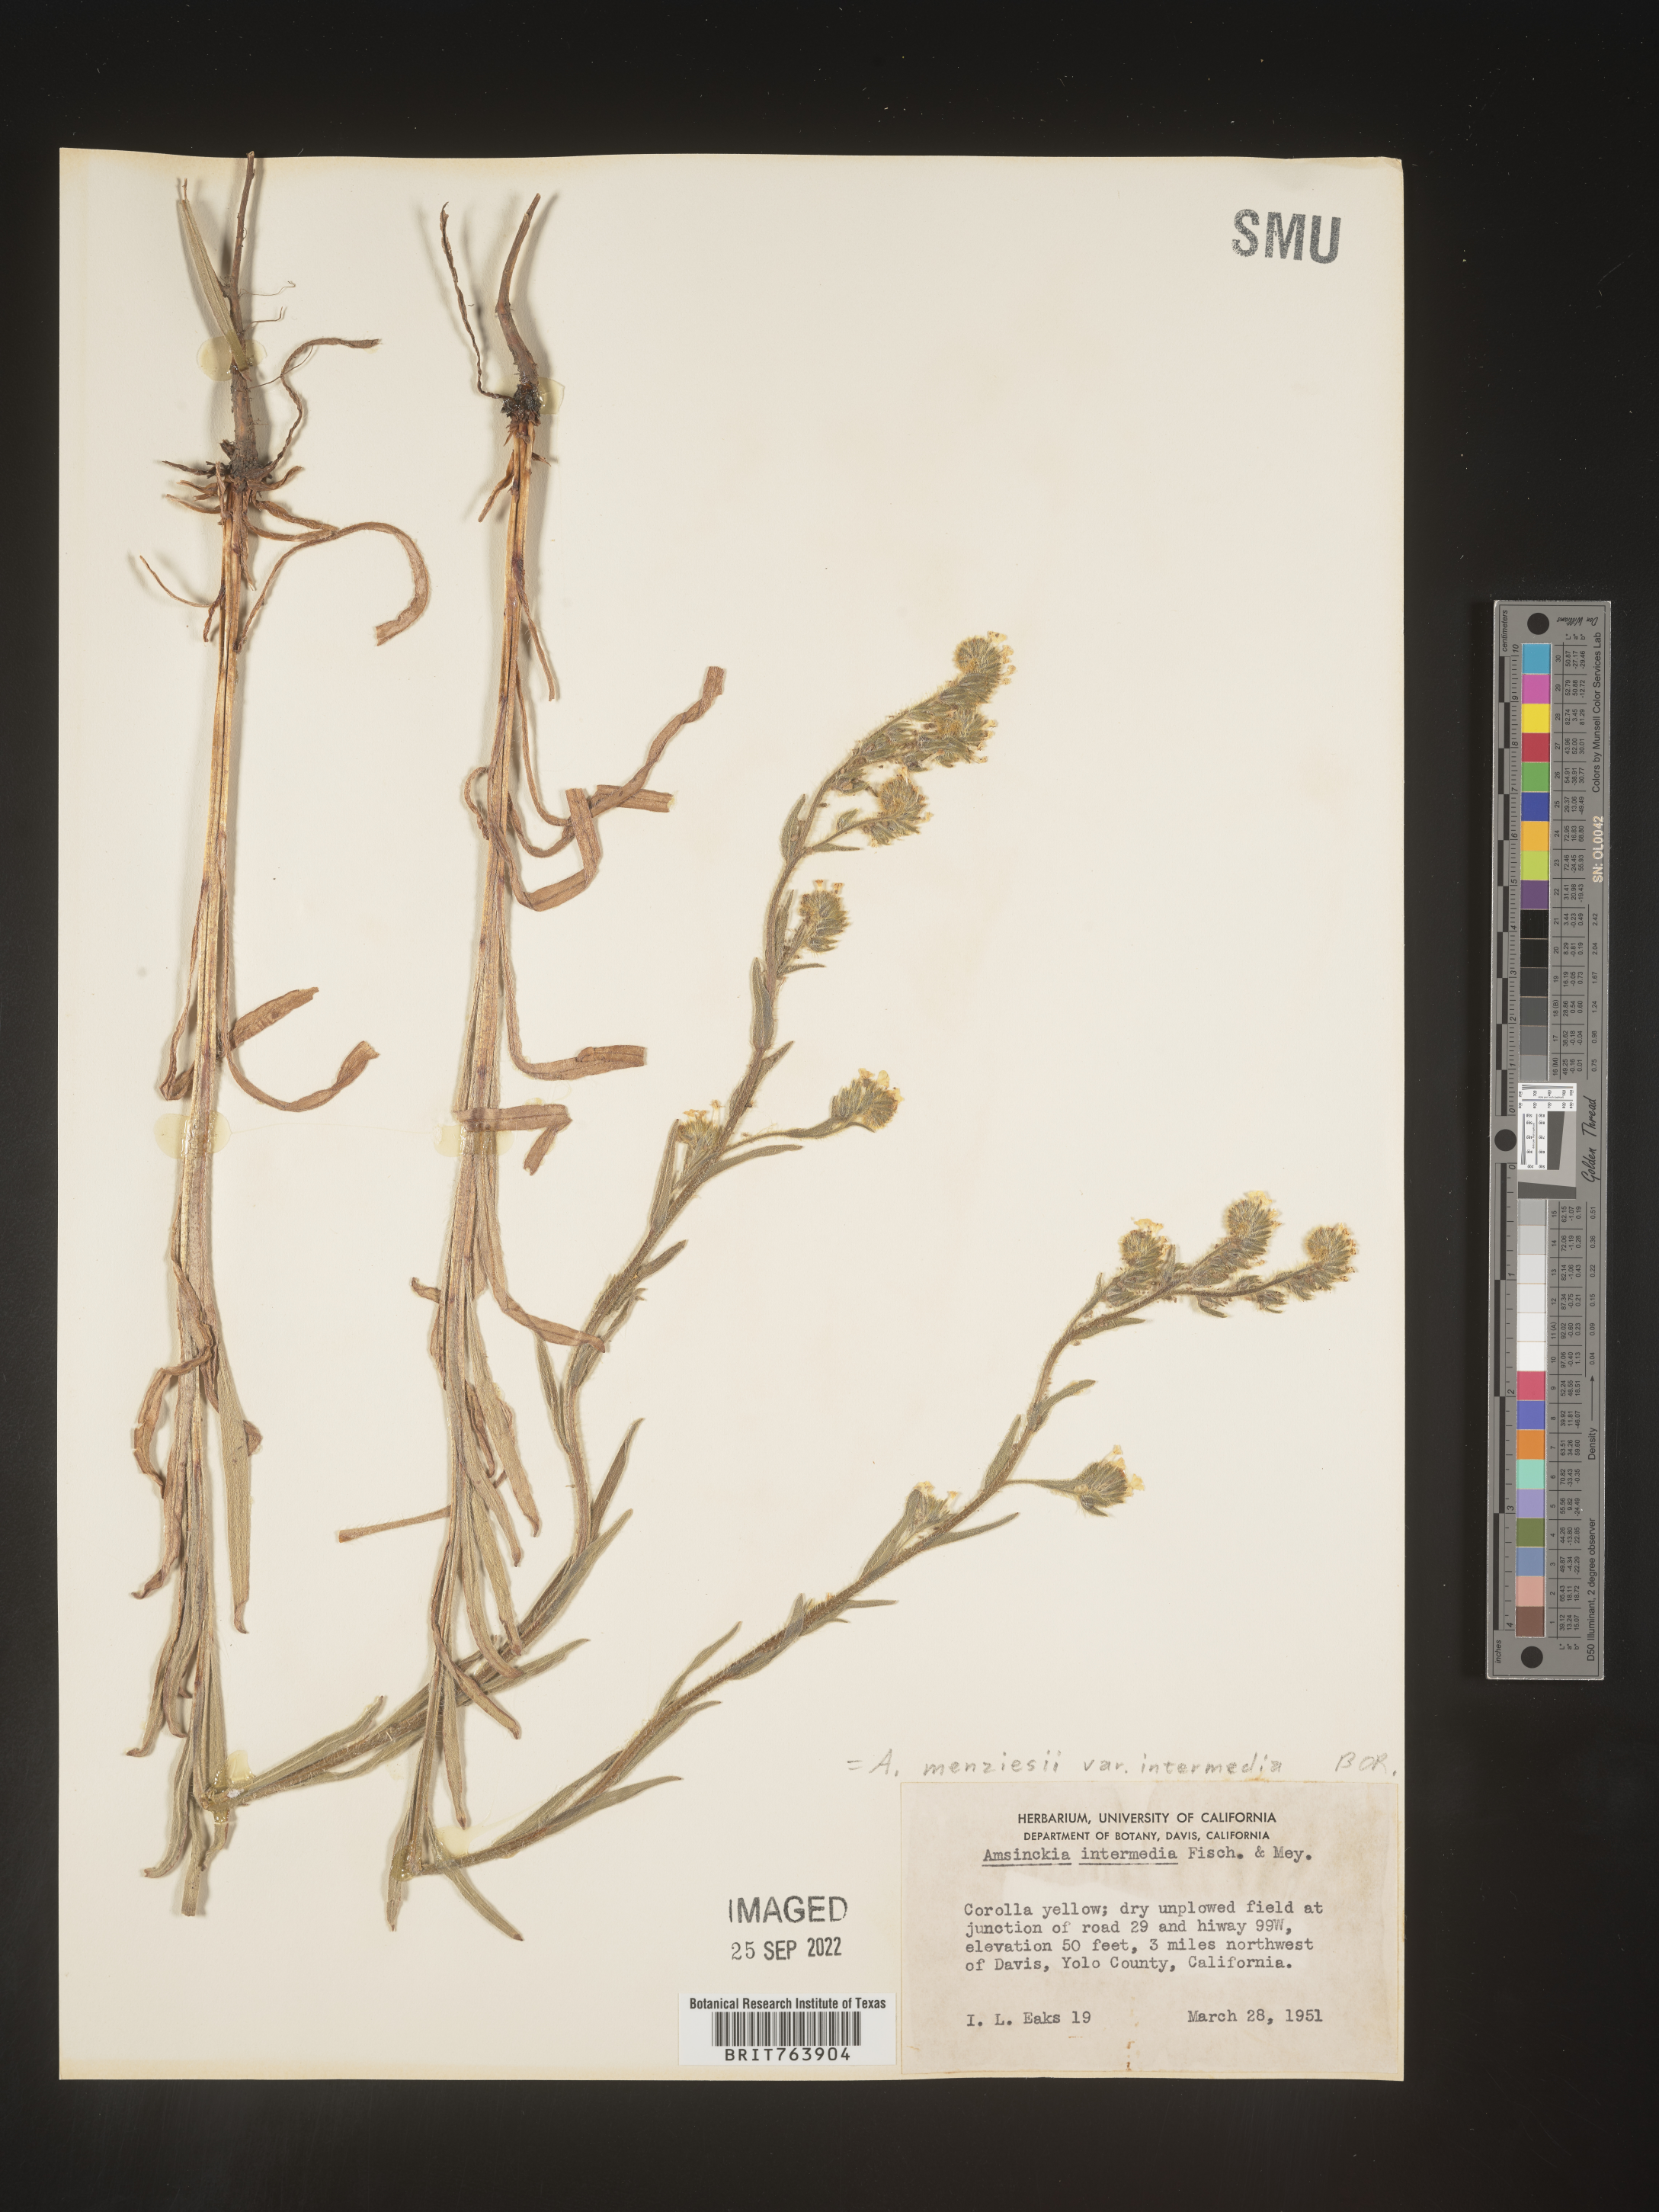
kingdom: Plantae
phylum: Tracheophyta
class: Magnoliopsida
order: Boraginales
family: Boraginaceae
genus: Amsinckia
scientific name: Amsinckia menziesii
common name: Menzies' fiddleneck
